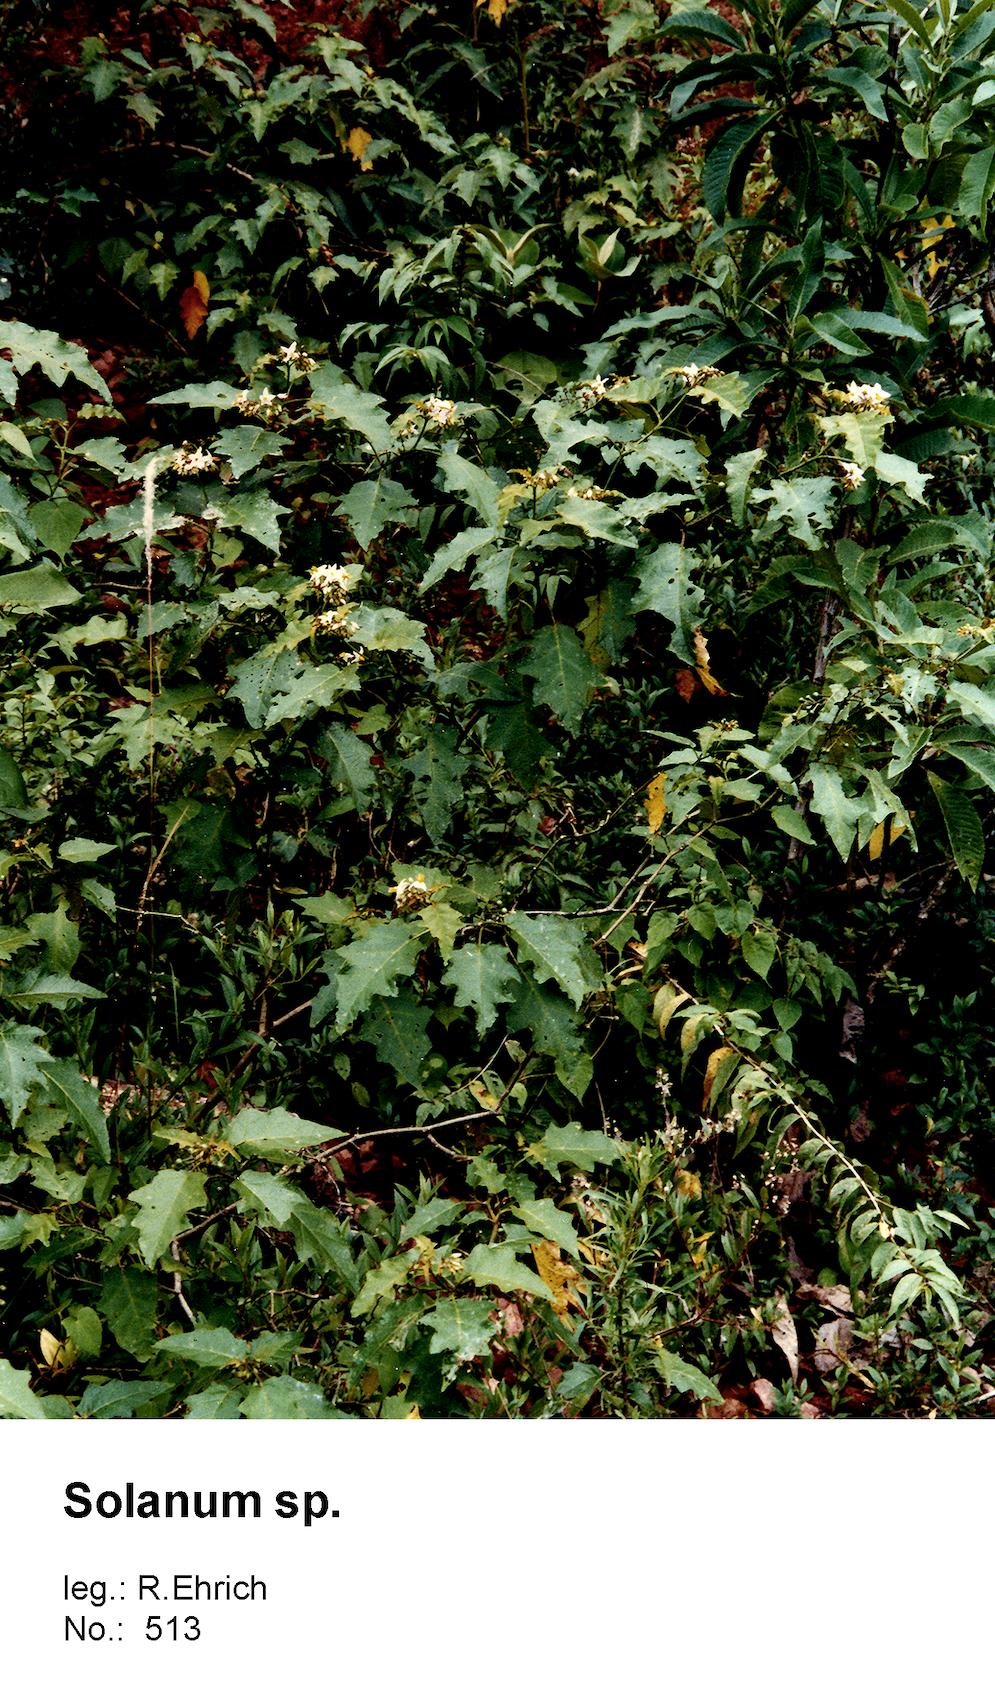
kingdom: Plantae
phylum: Tracheophyta
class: Magnoliopsida
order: Solanales
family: Solanaceae
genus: Solanum
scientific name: Solanum consimile
